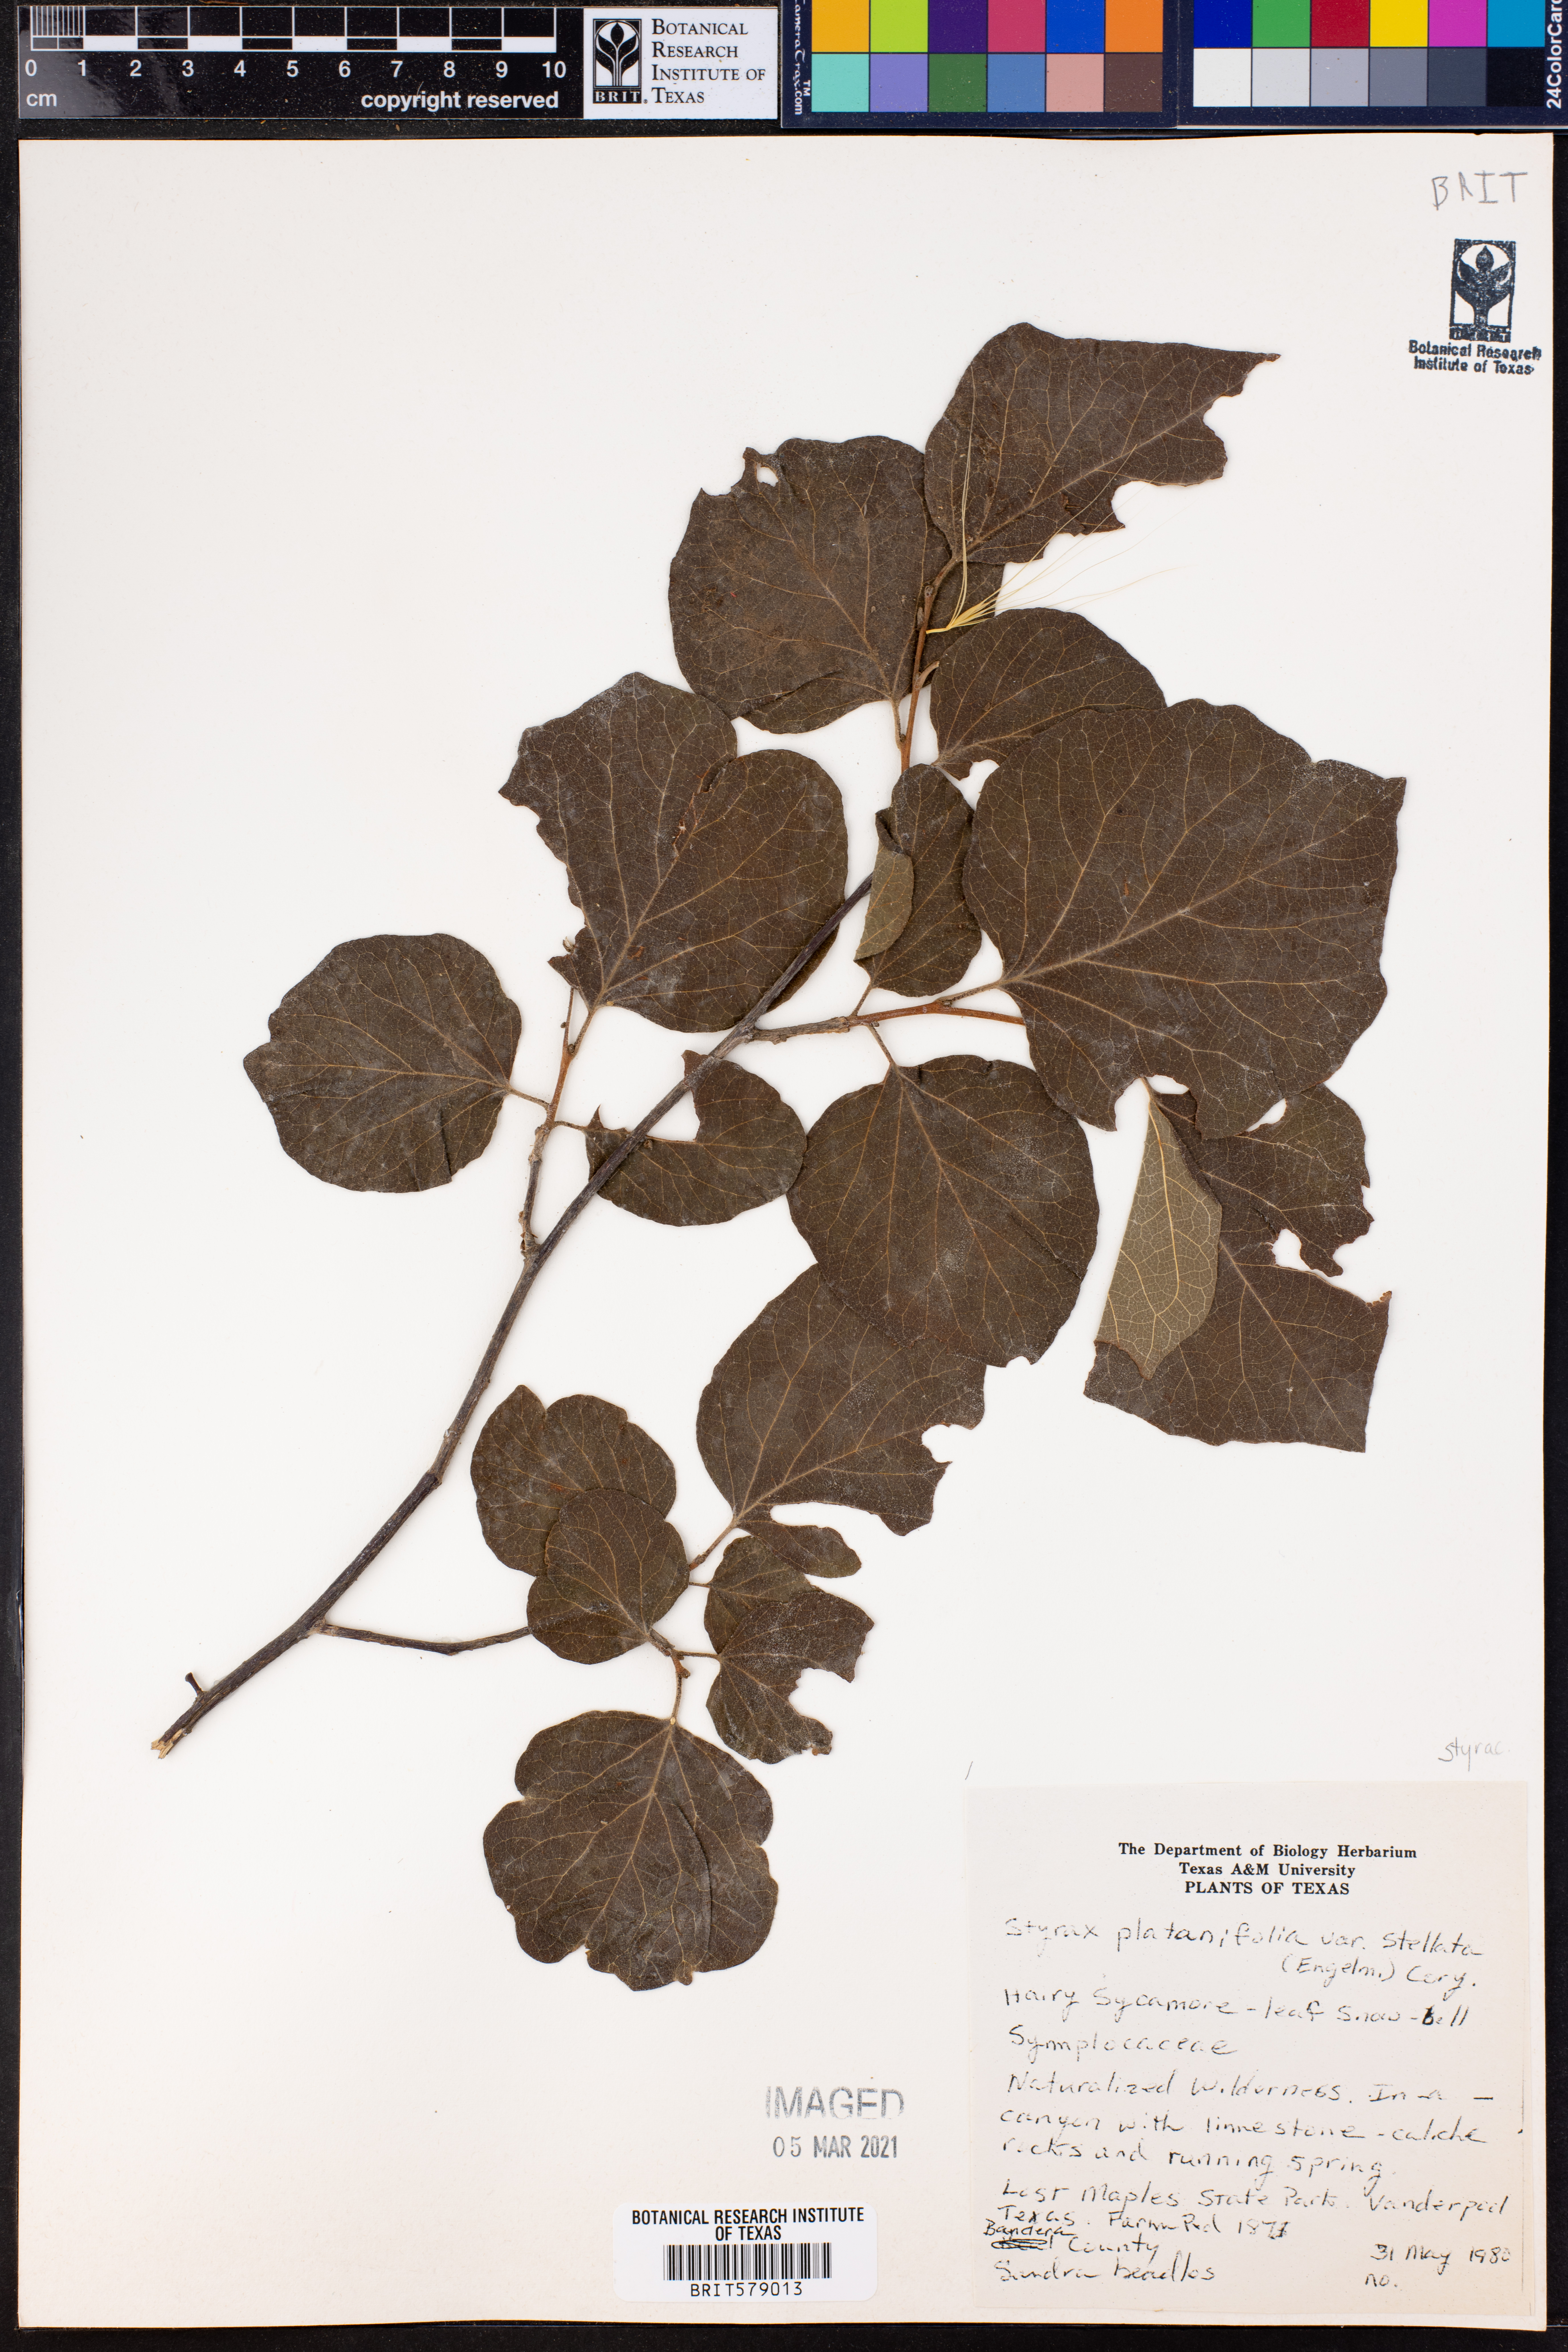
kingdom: Plantae
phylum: Tracheophyta
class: Magnoliopsida
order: Ericales
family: Styracaceae
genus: Styrax
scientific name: Styrax platanifolius
